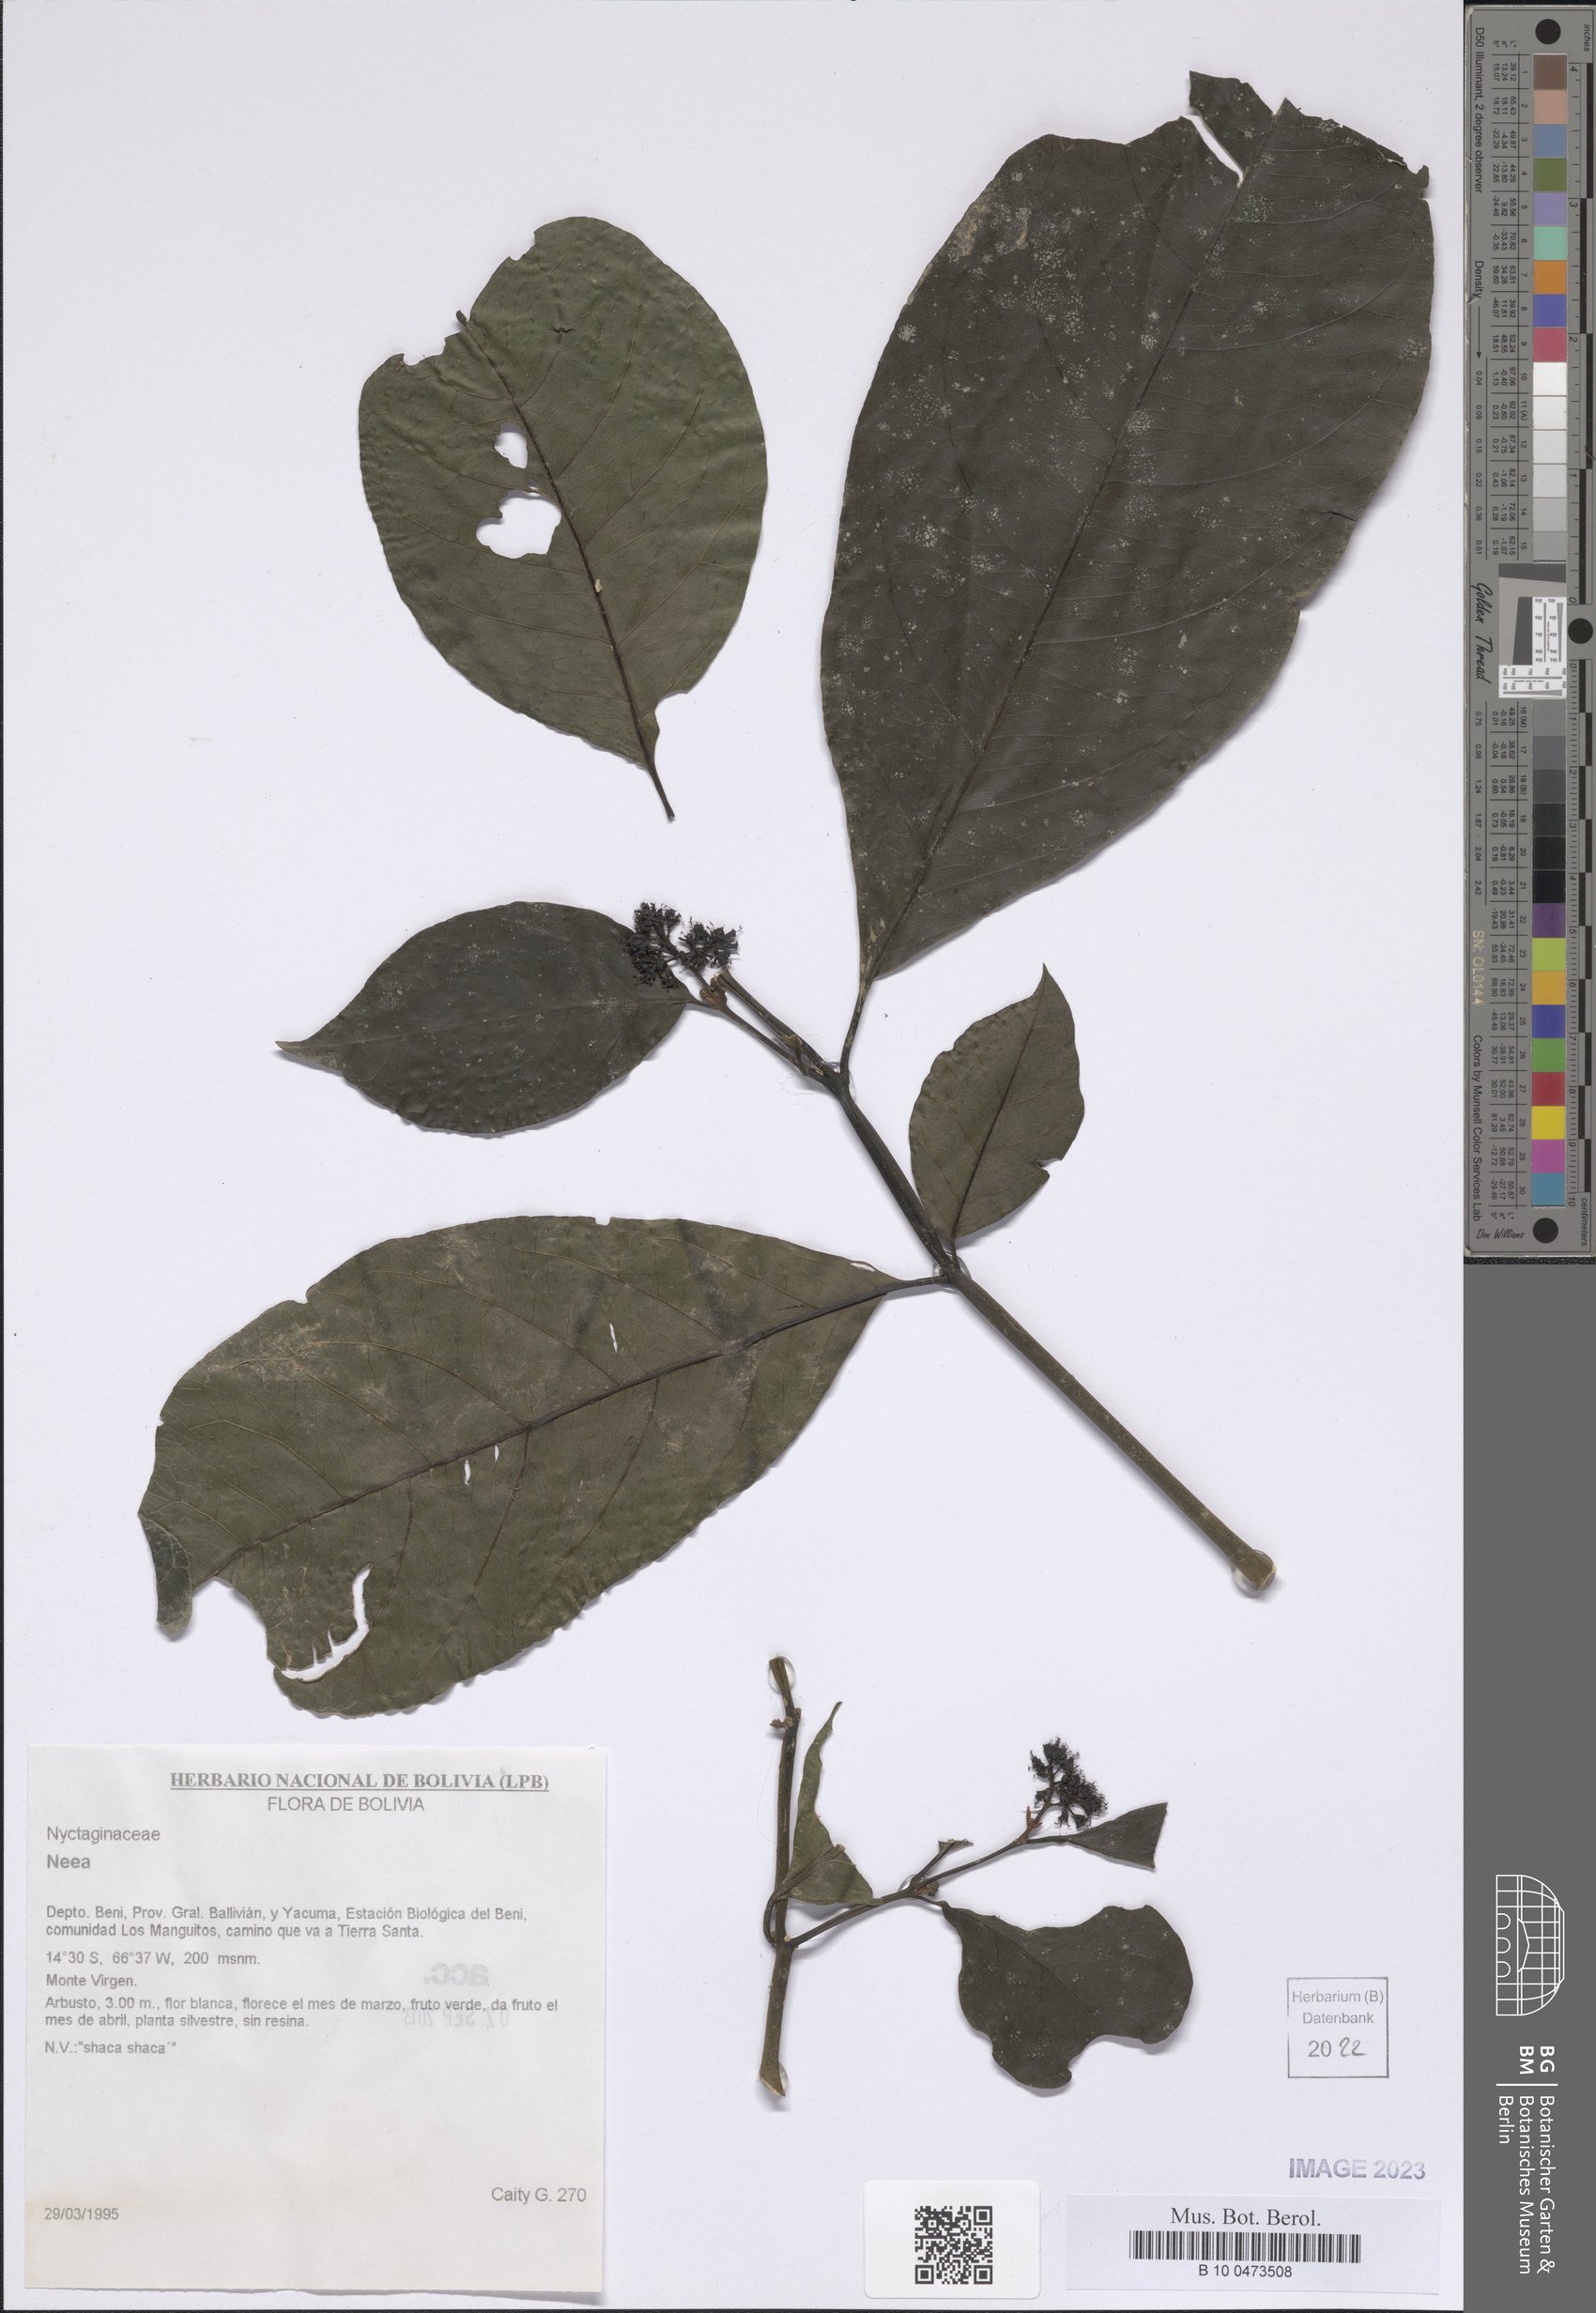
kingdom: Plantae
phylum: Tracheophyta
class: Magnoliopsida
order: Caryophyllales
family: Nyctaginaceae
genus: Neea
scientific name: Neea
